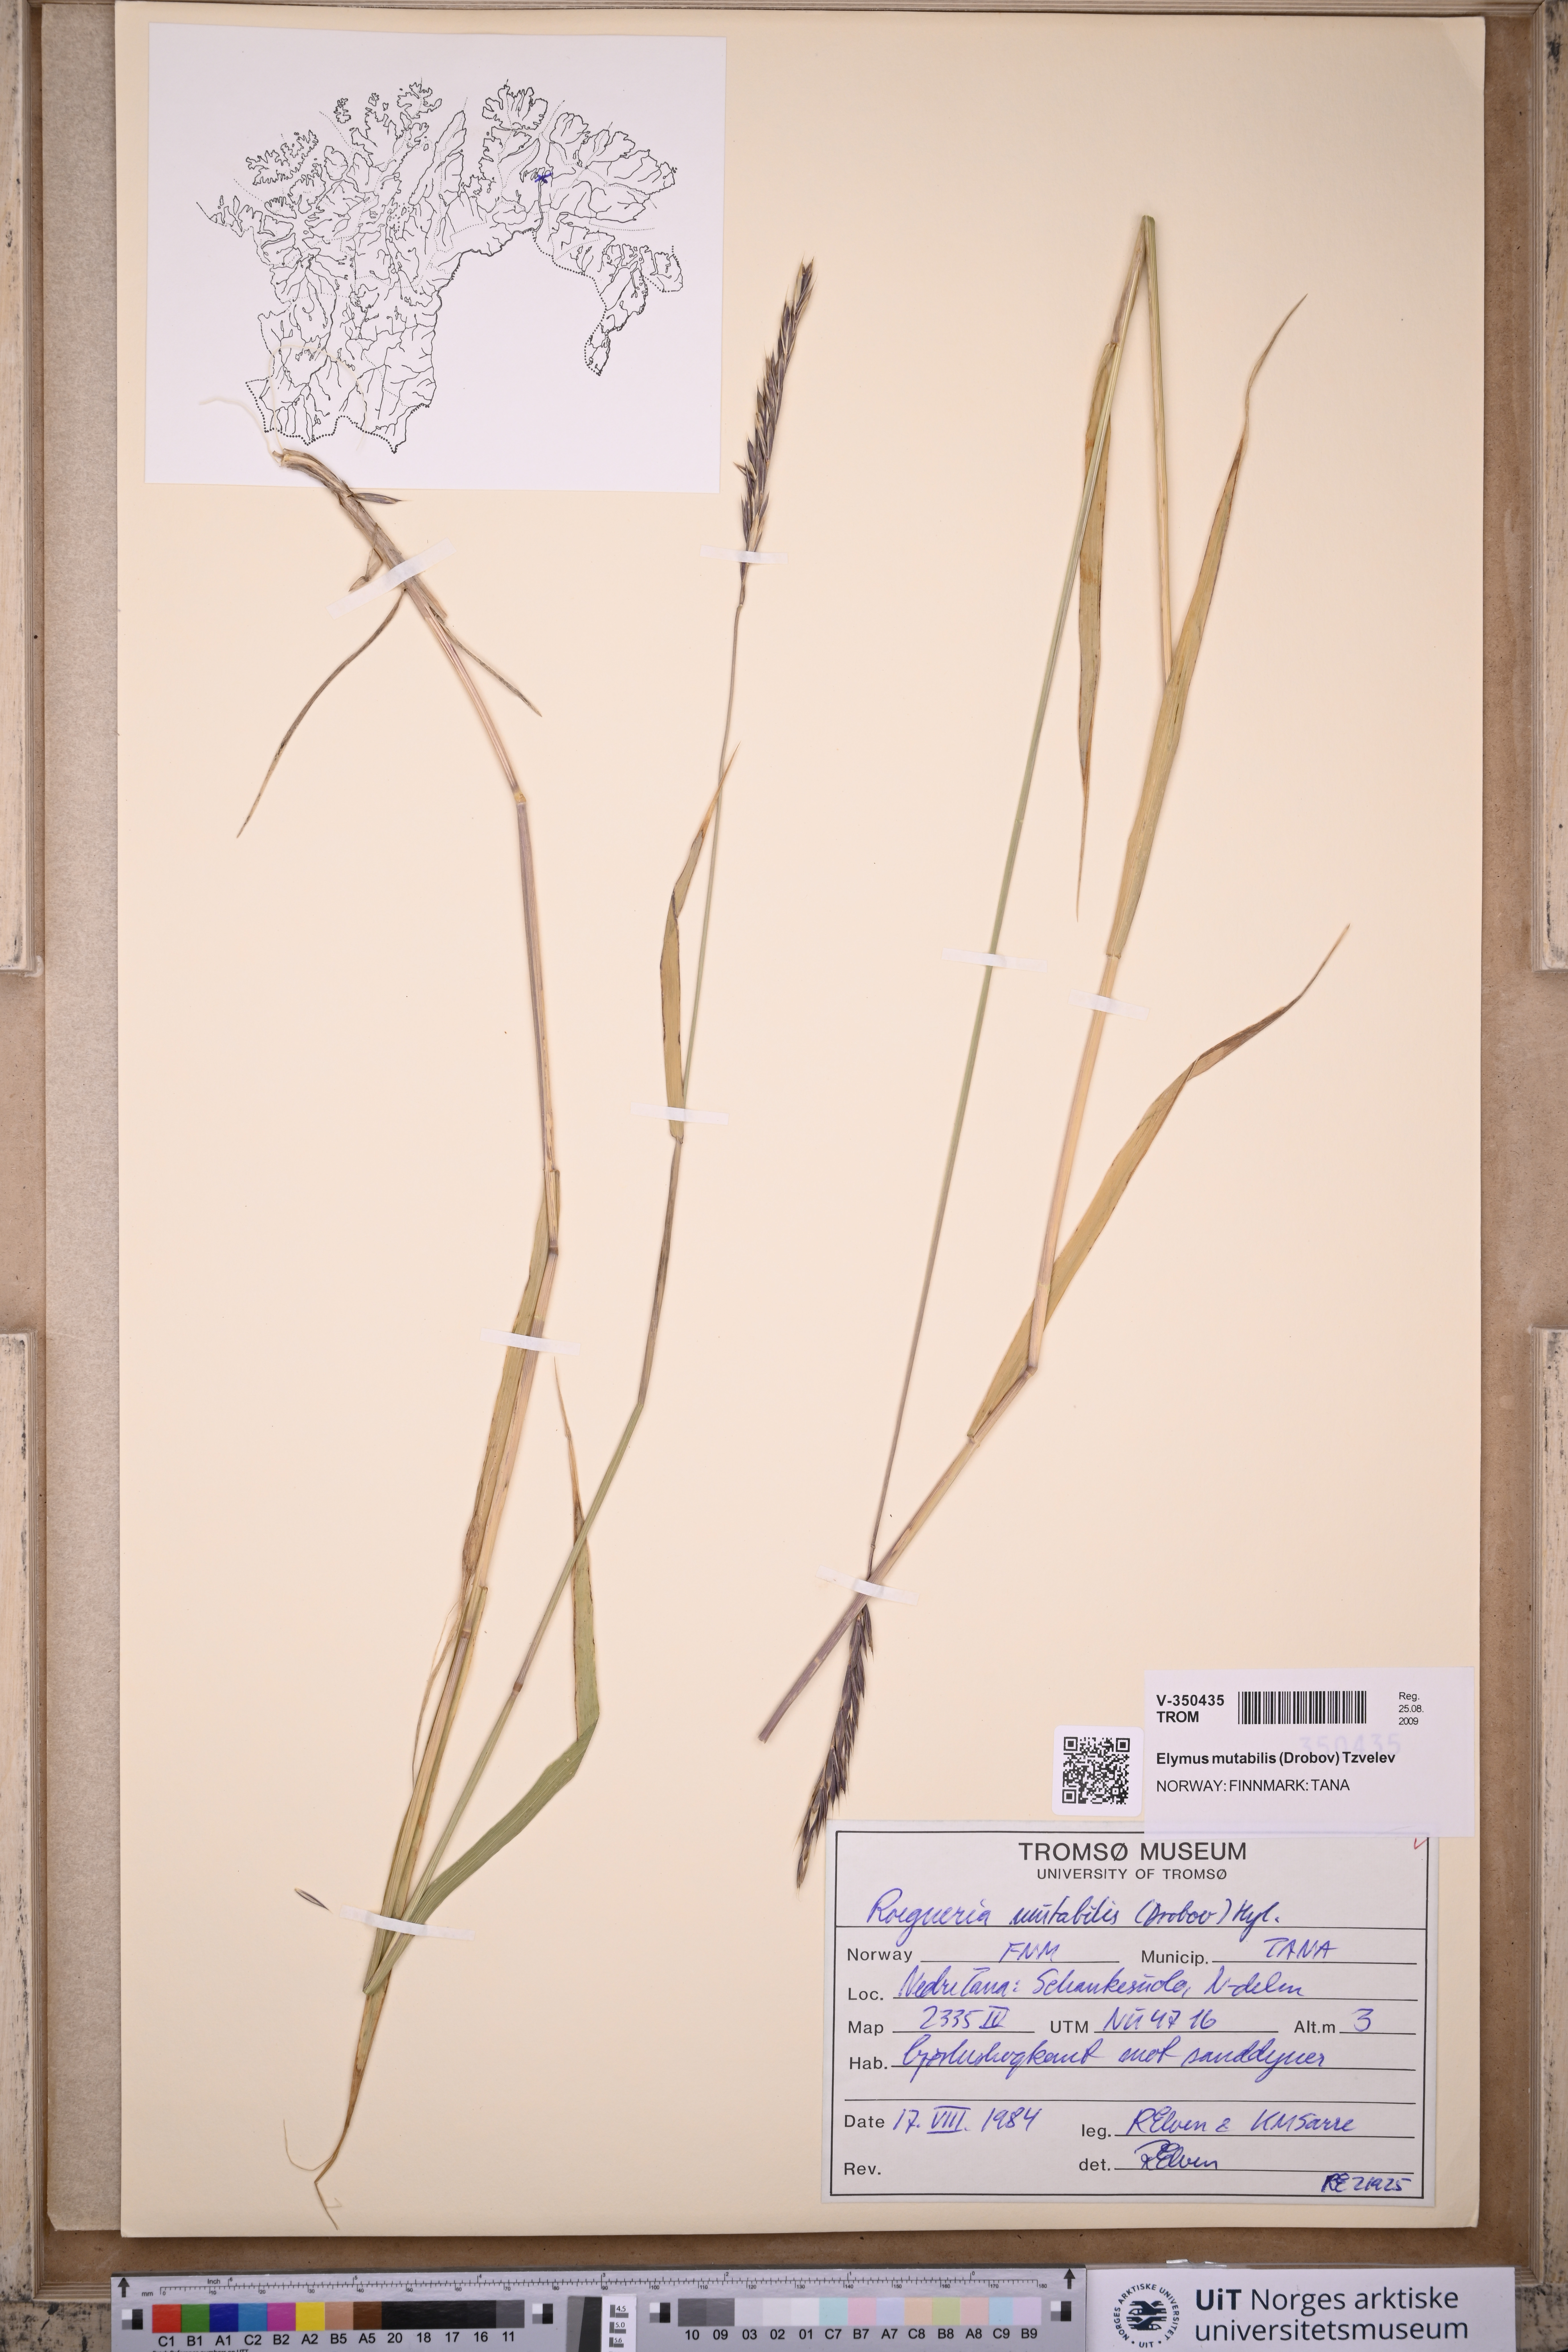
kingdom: Plantae
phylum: Tracheophyta
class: Liliopsida
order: Poales
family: Poaceae
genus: Elymus
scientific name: Elymus mutabilis
